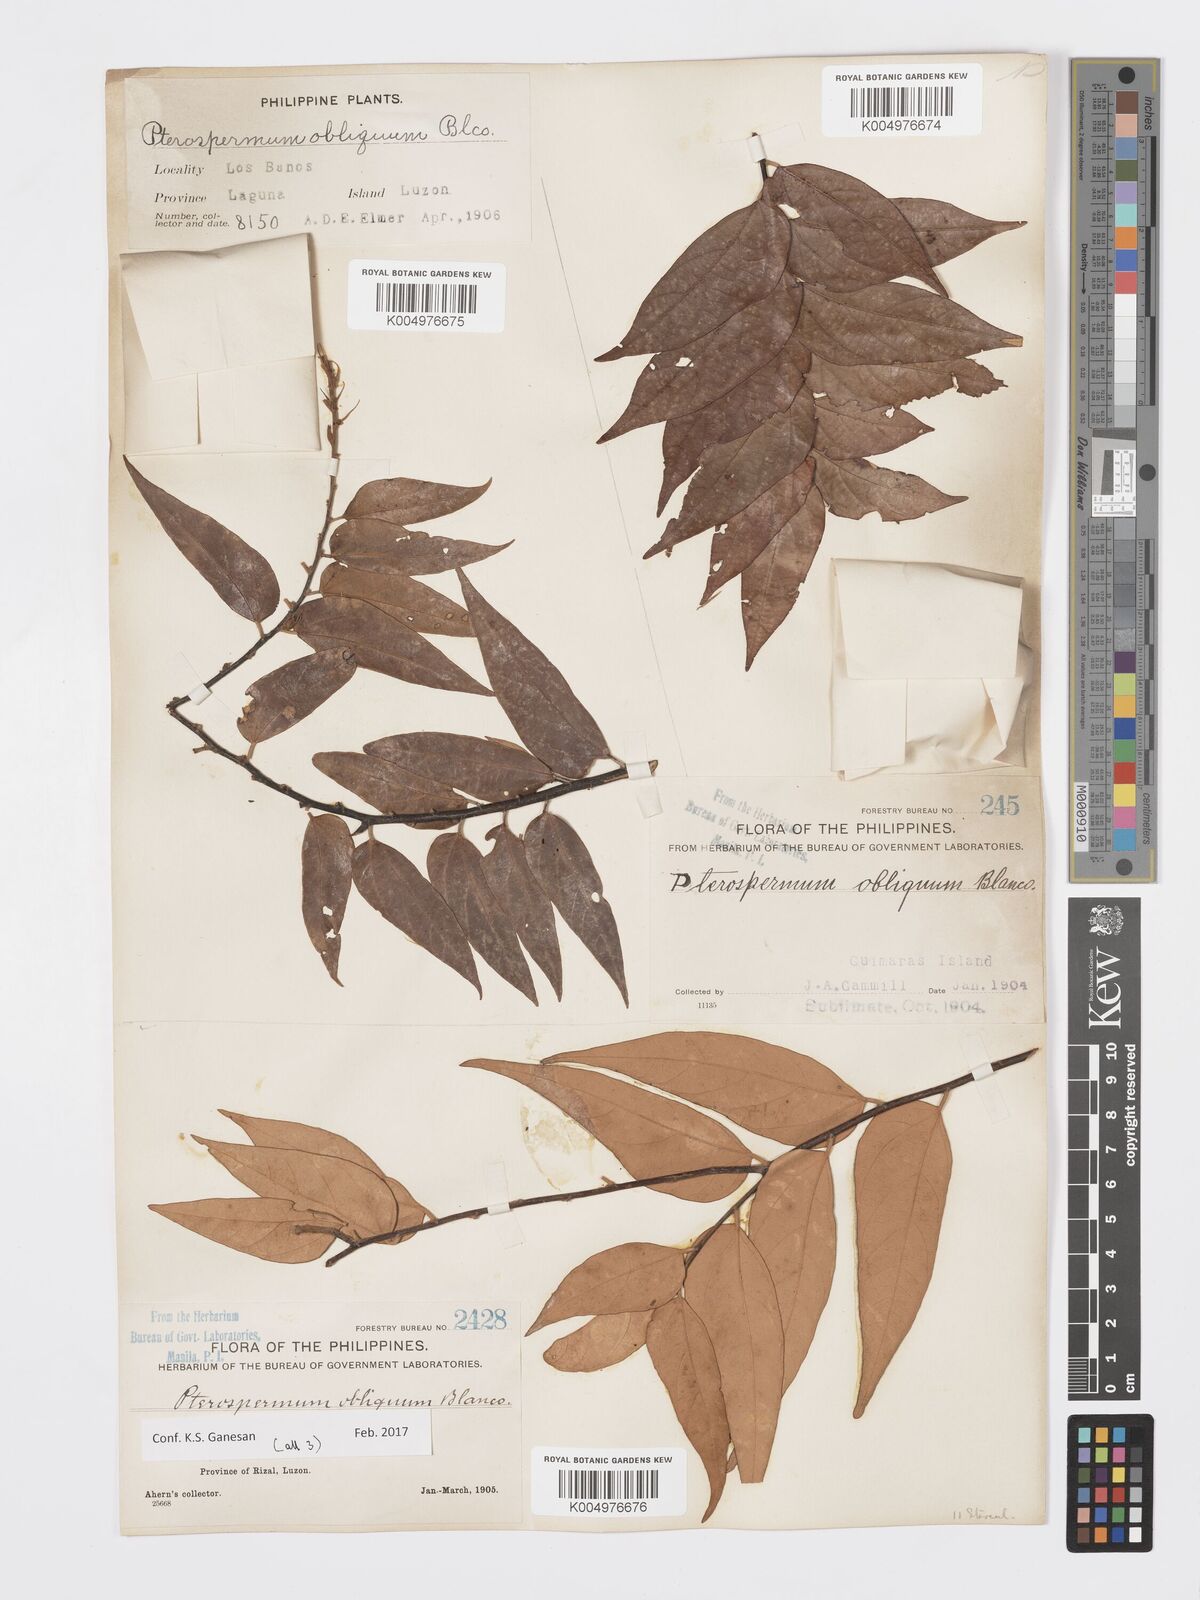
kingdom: Plantae
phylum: Tracheophyta
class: Magnoliopsida
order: Malvales
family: Malvaceae
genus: Pterospermum
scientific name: Pterospermum obliquum
